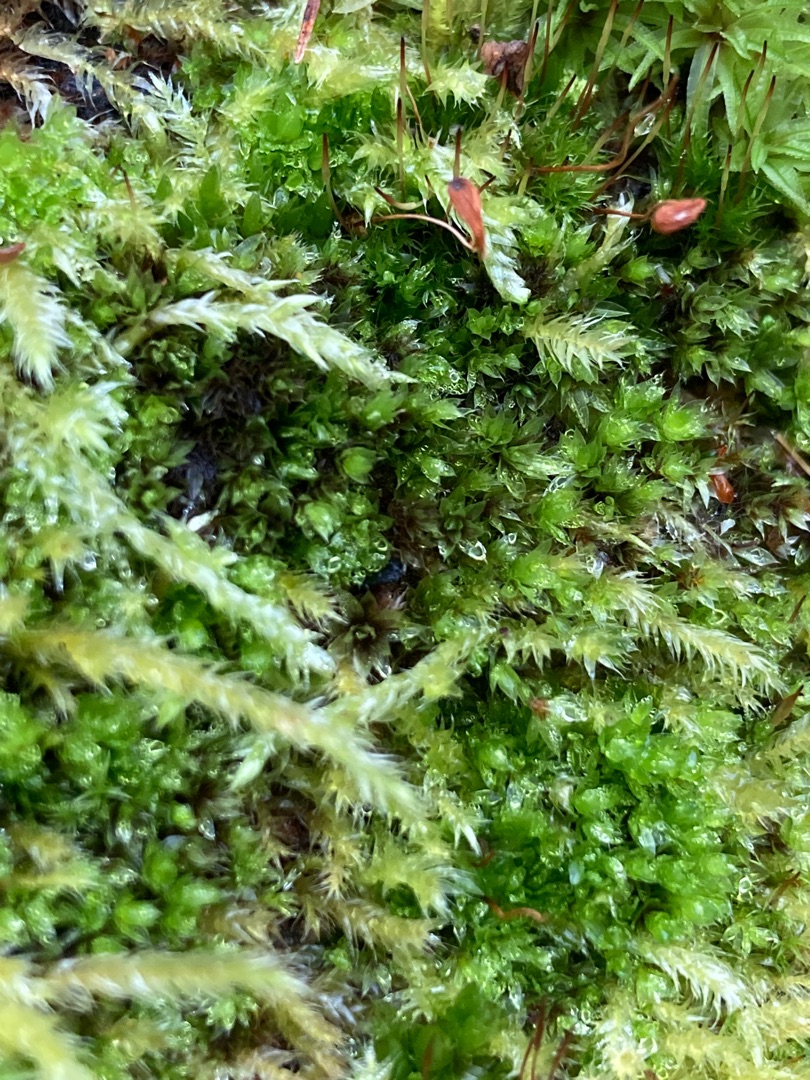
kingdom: Plantae
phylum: Bryophyta
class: Bryopsida
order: Bryales
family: Bryaceae
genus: Rosulabryum
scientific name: Rosulabryum moravicum
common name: Bark-bryum
